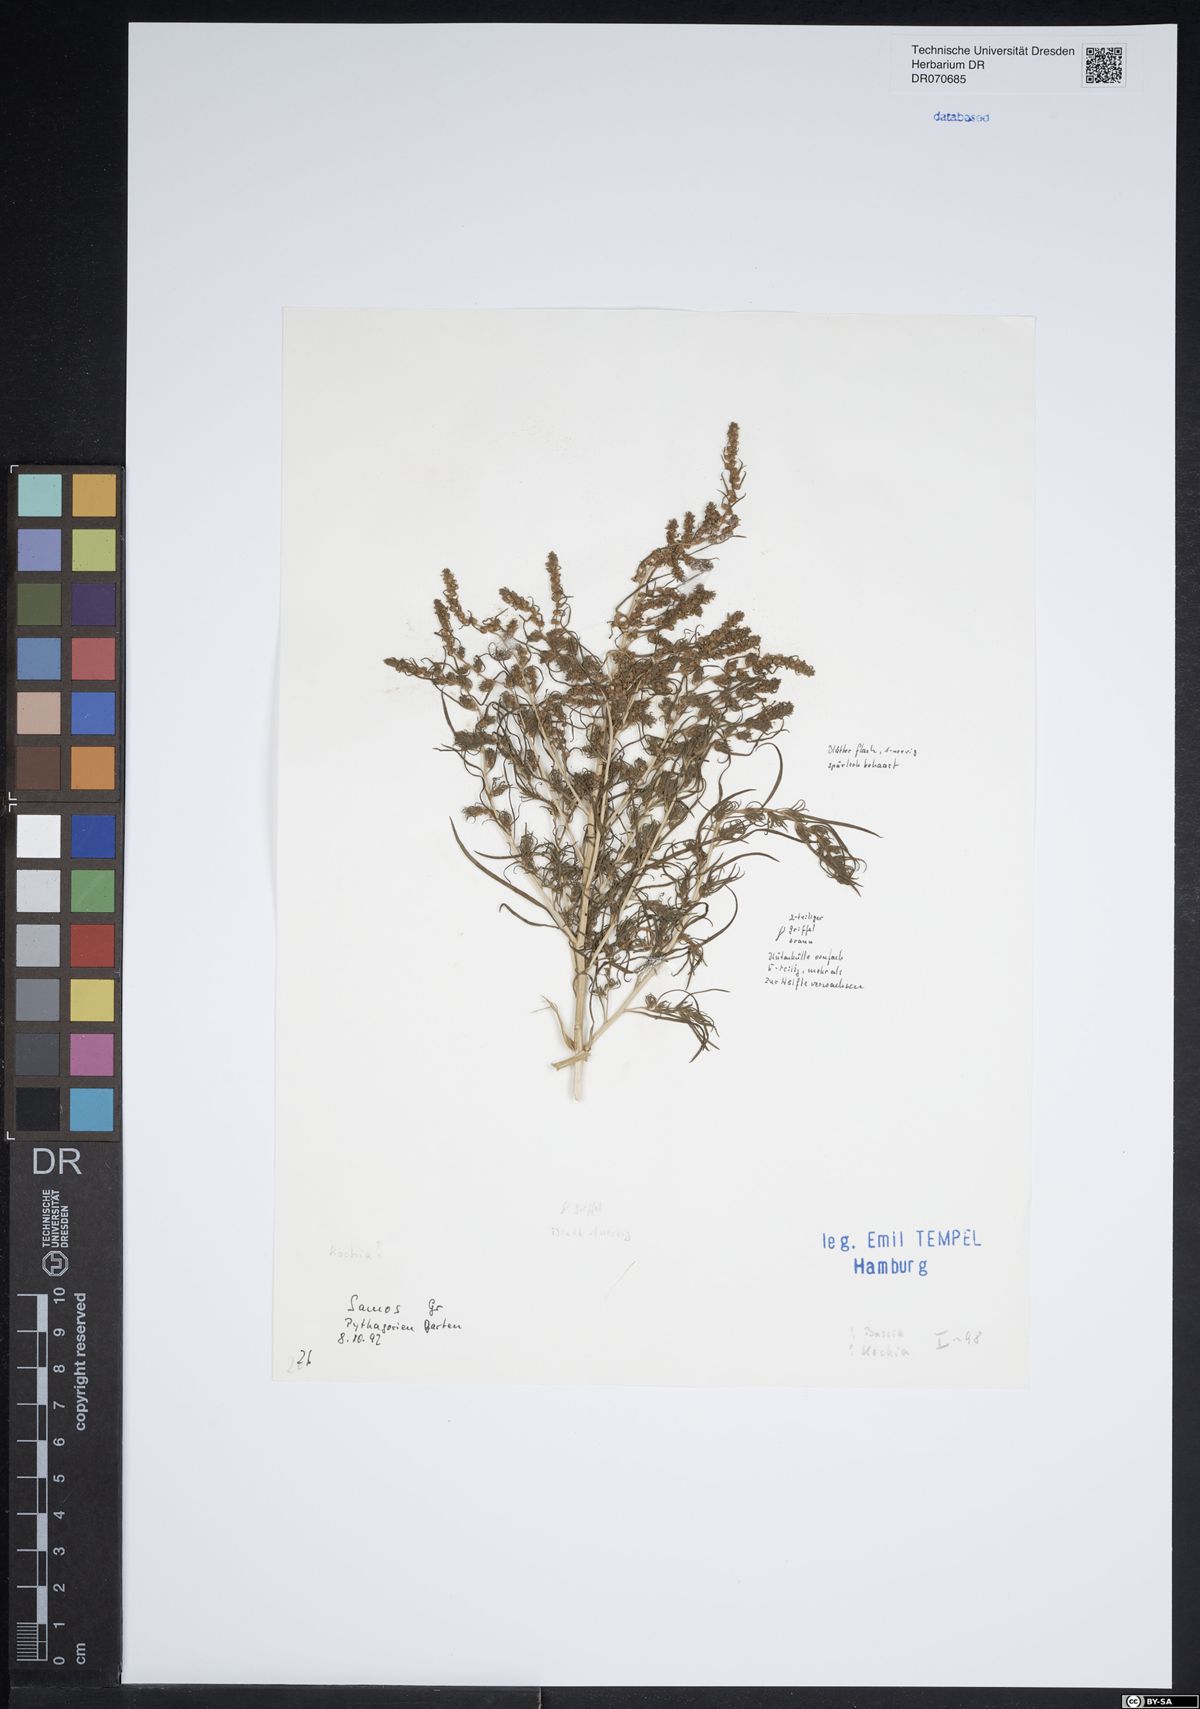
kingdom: Plantae
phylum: Tracheophyta
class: Magnoliopsida
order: Caryophyllales
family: Amaranthaceae
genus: Bassia
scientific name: Bassia
